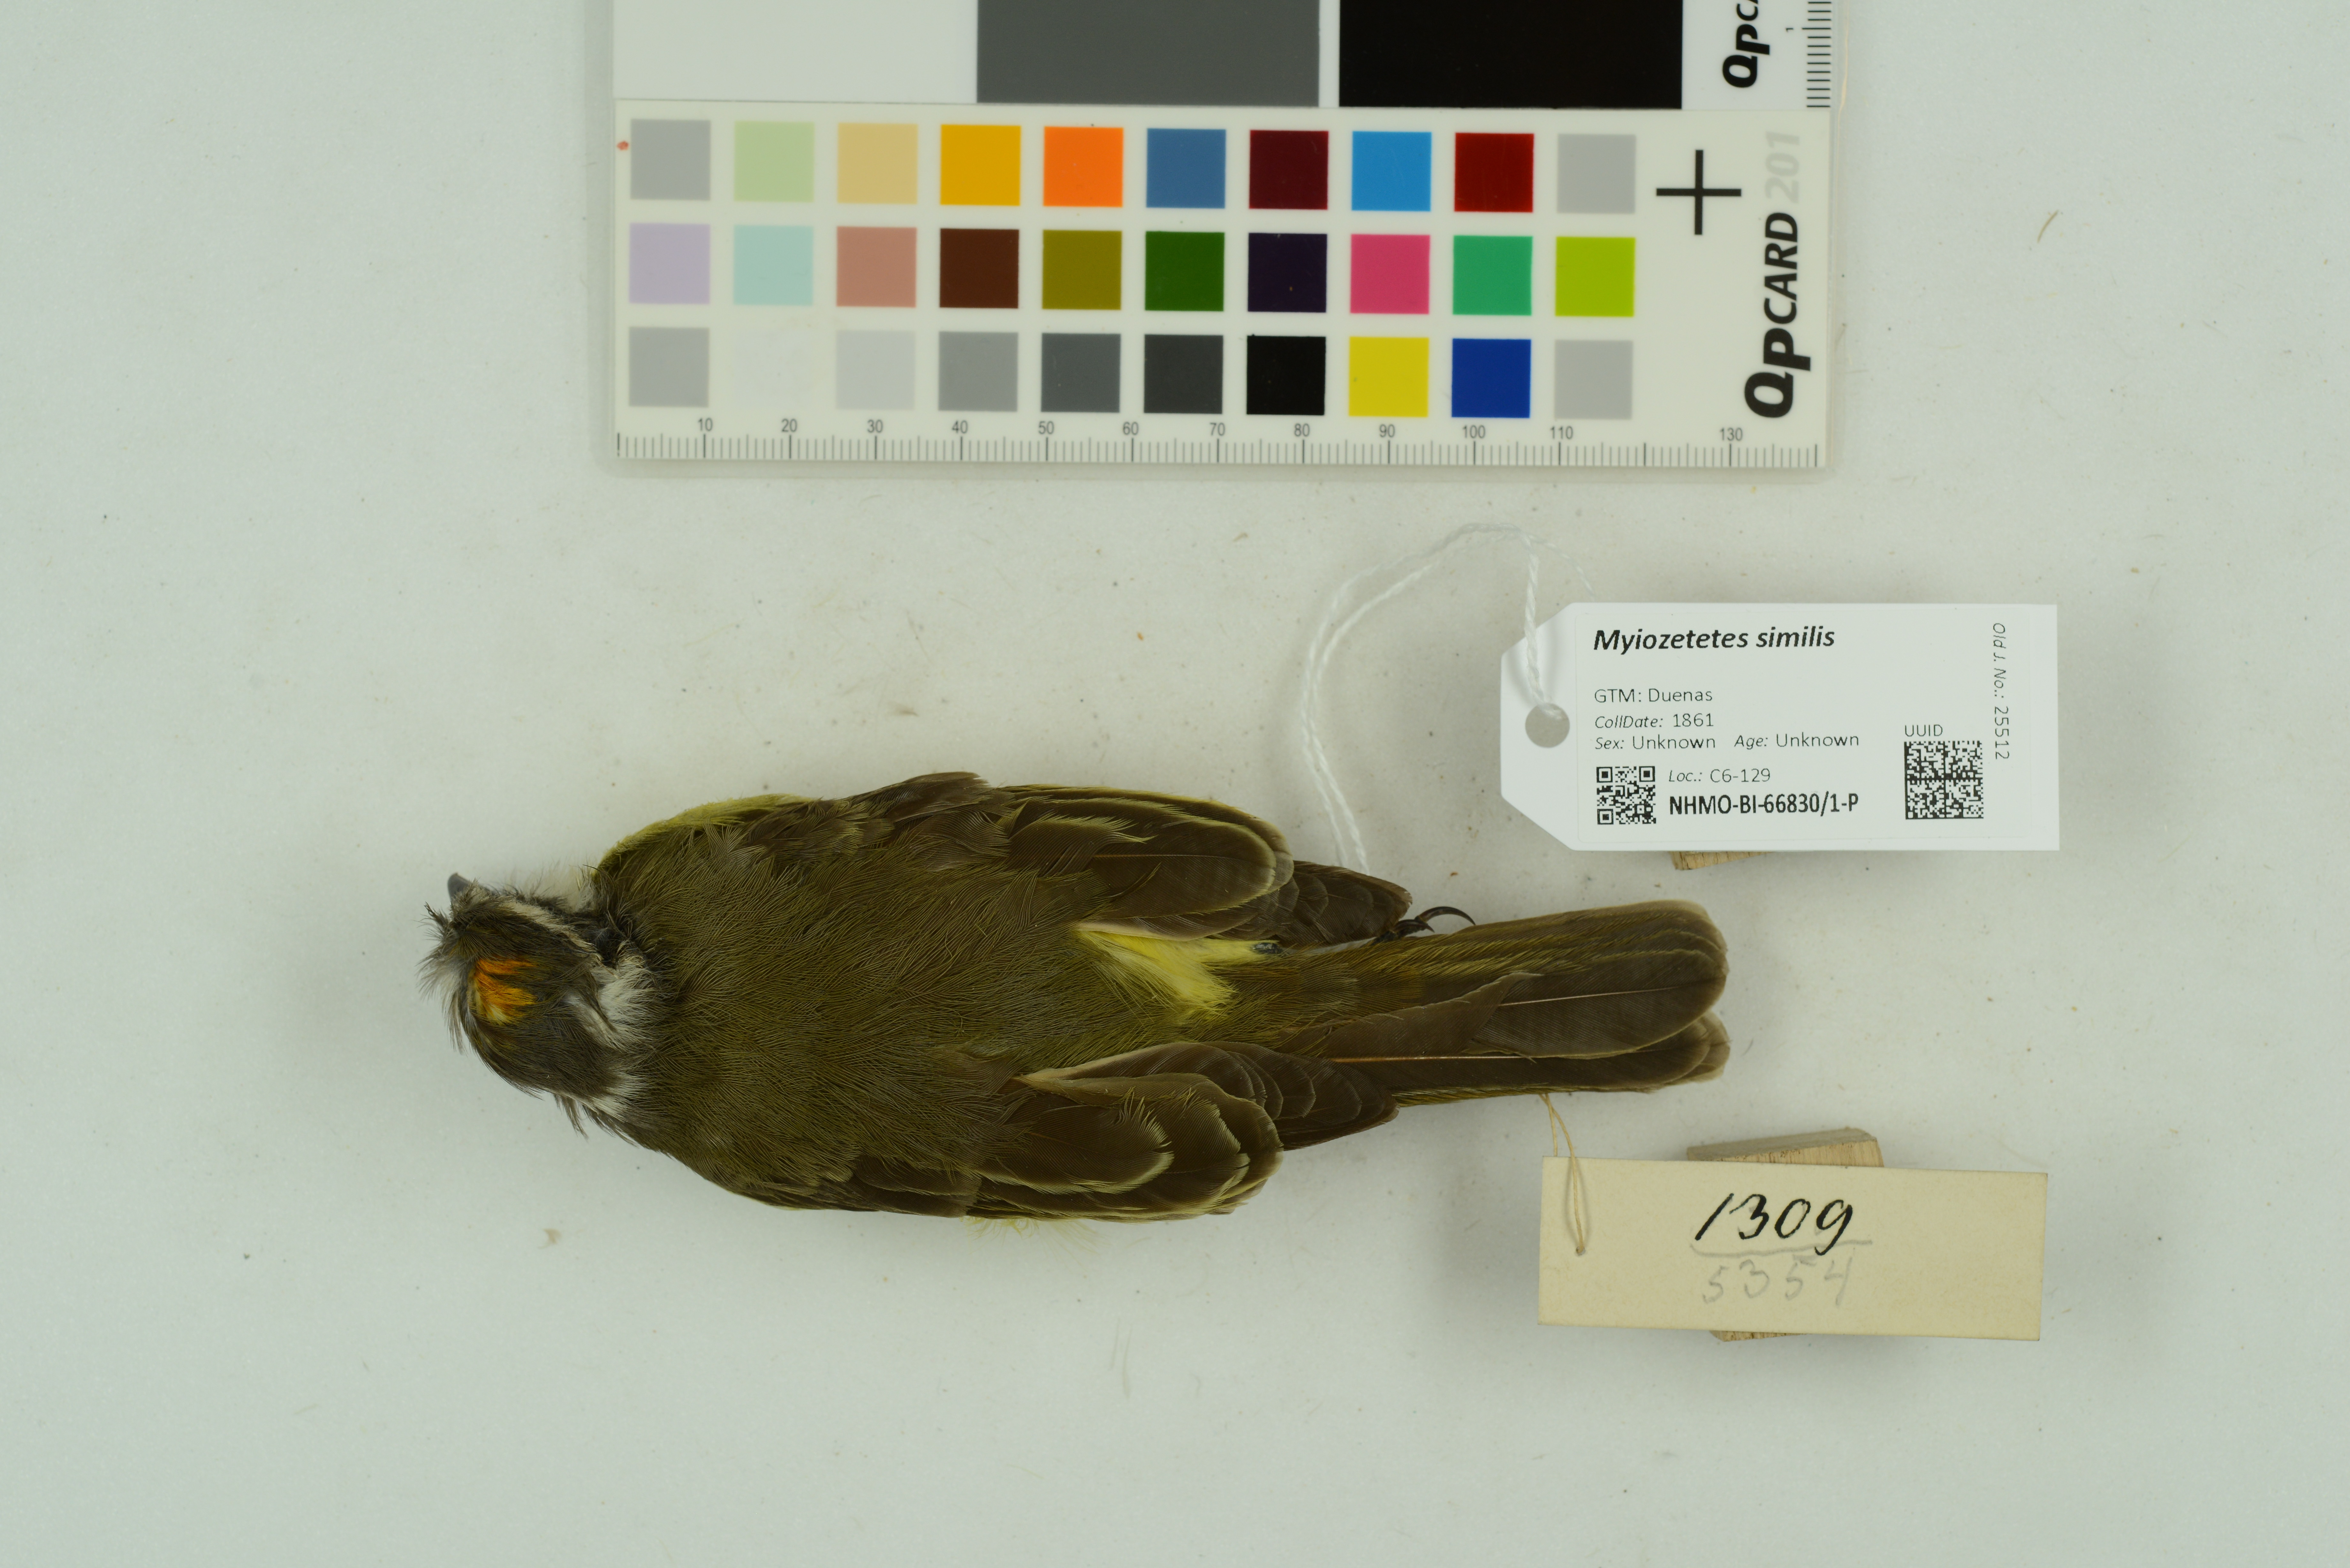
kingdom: Animalia
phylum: Chordata
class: Aves
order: Passeriformes
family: Tyrannidae
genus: Myiozetetes
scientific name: Myiozetetes similis
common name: Social flycatcher
